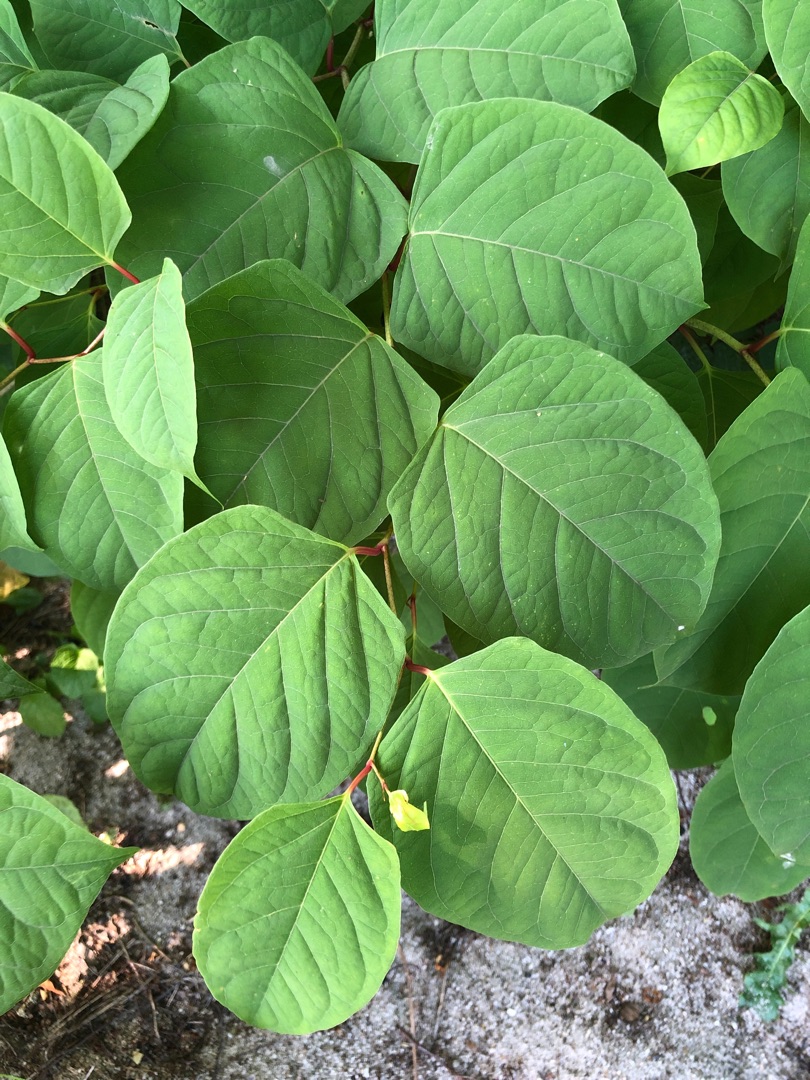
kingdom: Plantae
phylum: Tracheophyta
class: Magnoliopsida
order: Caryophyllales
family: Polygonaceae
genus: Reynoutria
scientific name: Reynoutria japonica
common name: Japan-pileurt
